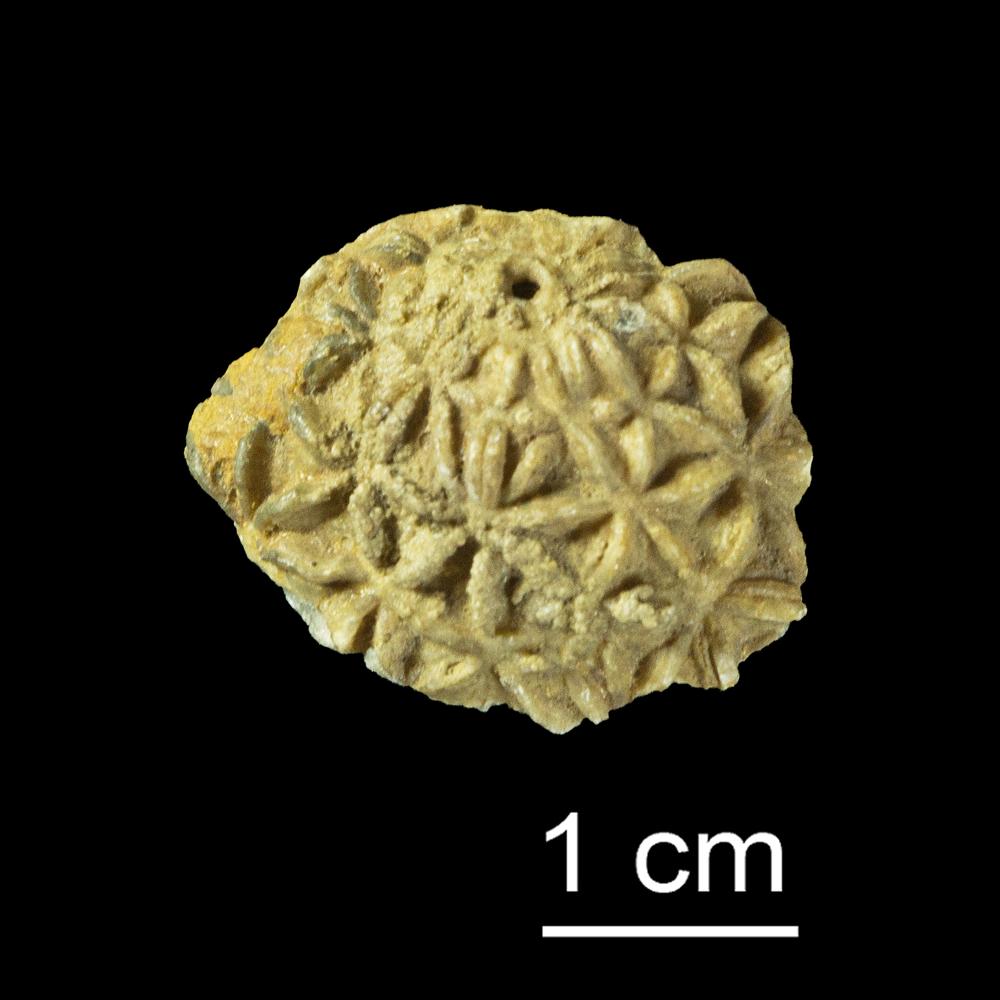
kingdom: Animalia
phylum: Echinodermata
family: Caryocystitidae
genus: Heliocrinites
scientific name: Heliocrinites Echinosphaerites balticus
